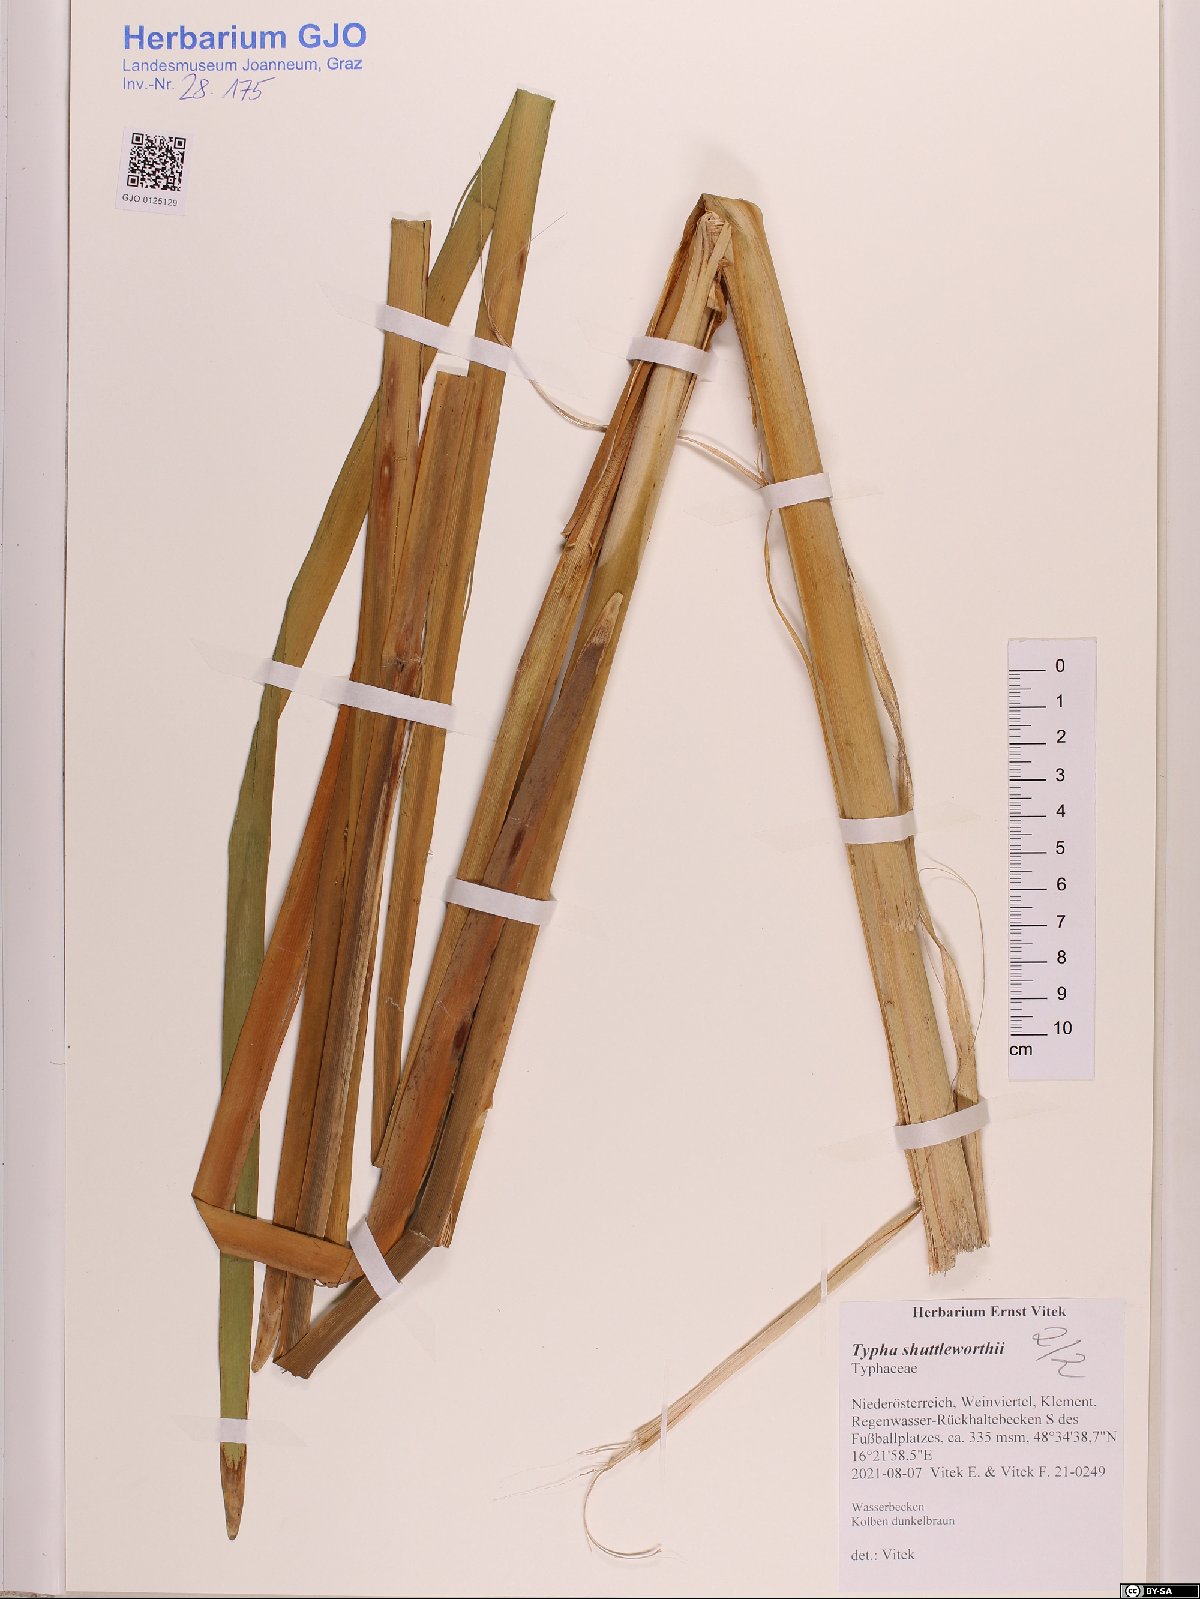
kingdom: Plantae
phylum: Tracheophyta
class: Liliopsida
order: Poales
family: Typhaceae
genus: Typha
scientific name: Typha shuttleworthii
